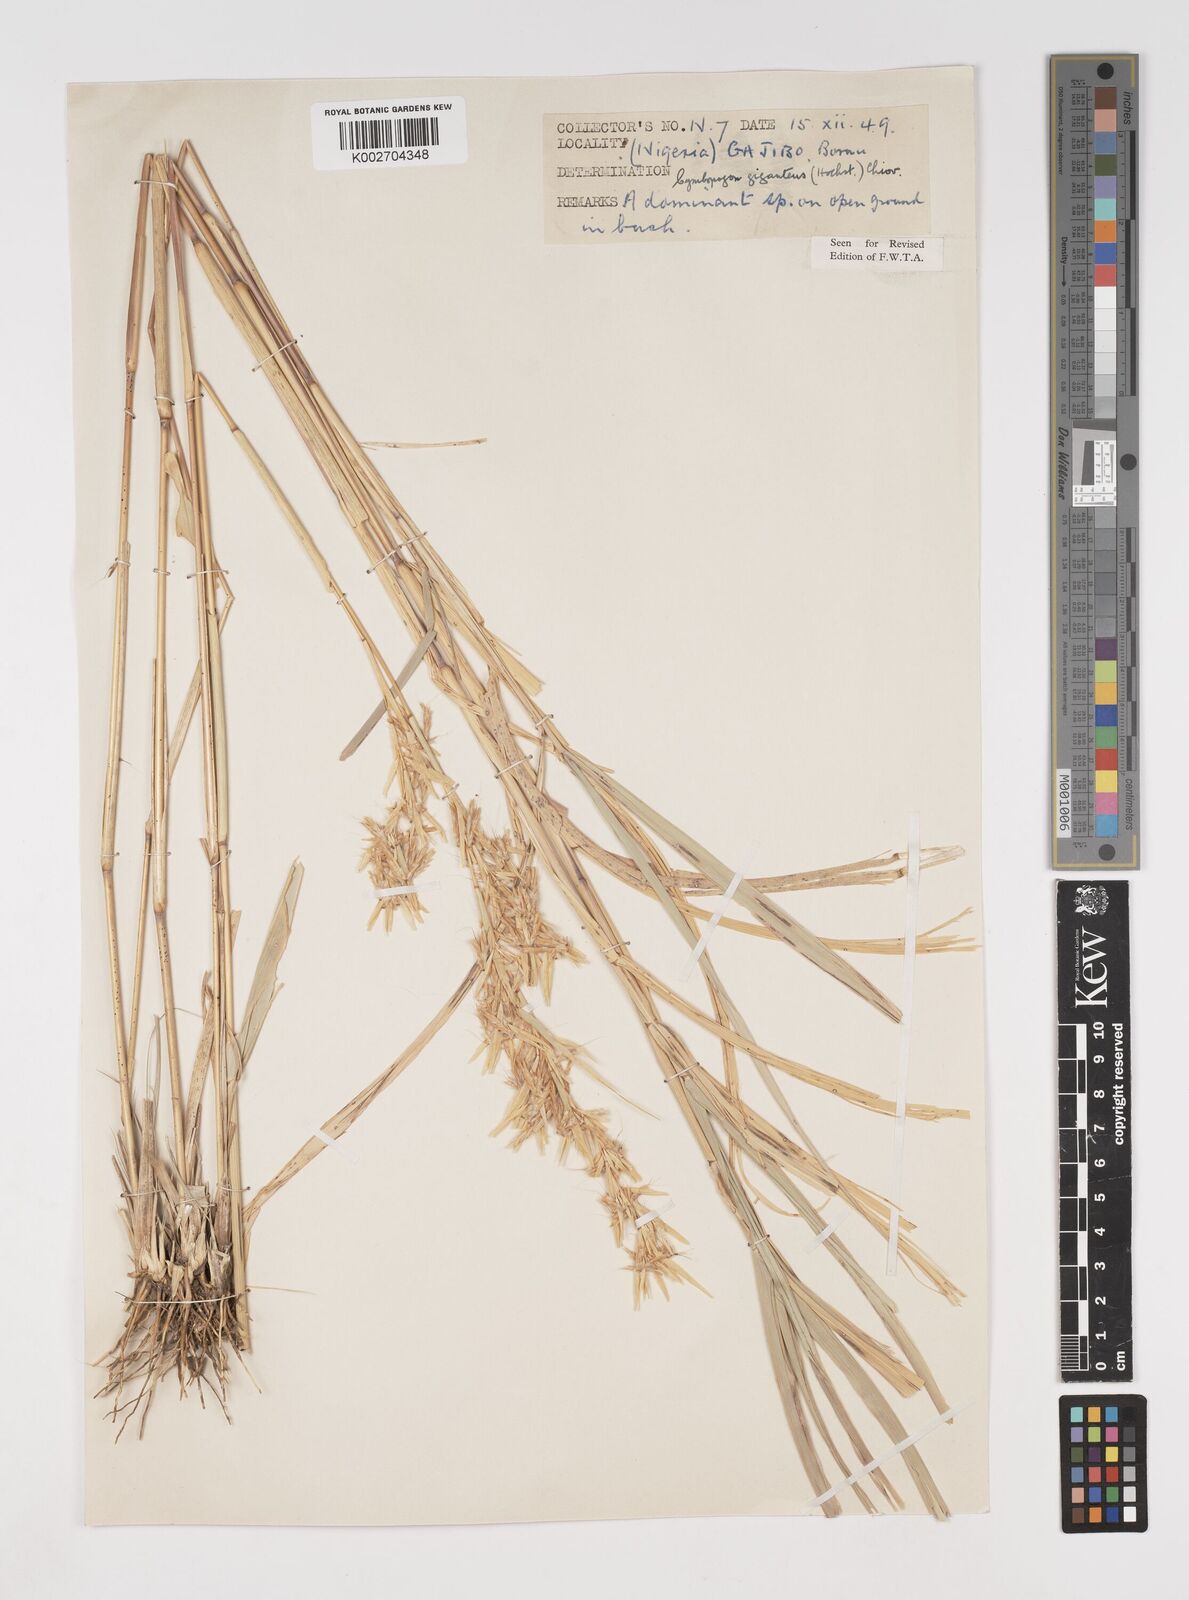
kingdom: Plantae
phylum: Tracheophyta
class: Liliopsida
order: Poales
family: Poaceae
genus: Cymbopogon
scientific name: Cymbopogon giganteus
